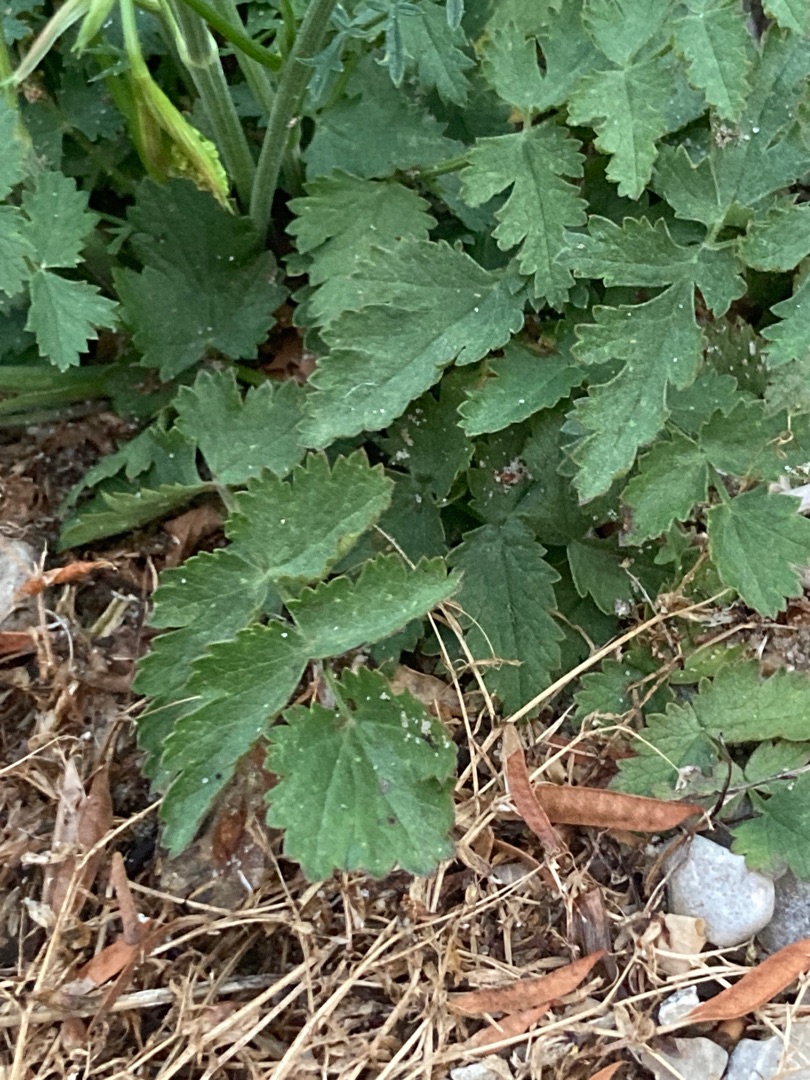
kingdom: Plantae
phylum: Tracheophyta
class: Magnoliopsida
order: Apiales
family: Apiaceae
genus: Pimpinella
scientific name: Pimpinella saxifraga
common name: Almindelig pimpinelle
